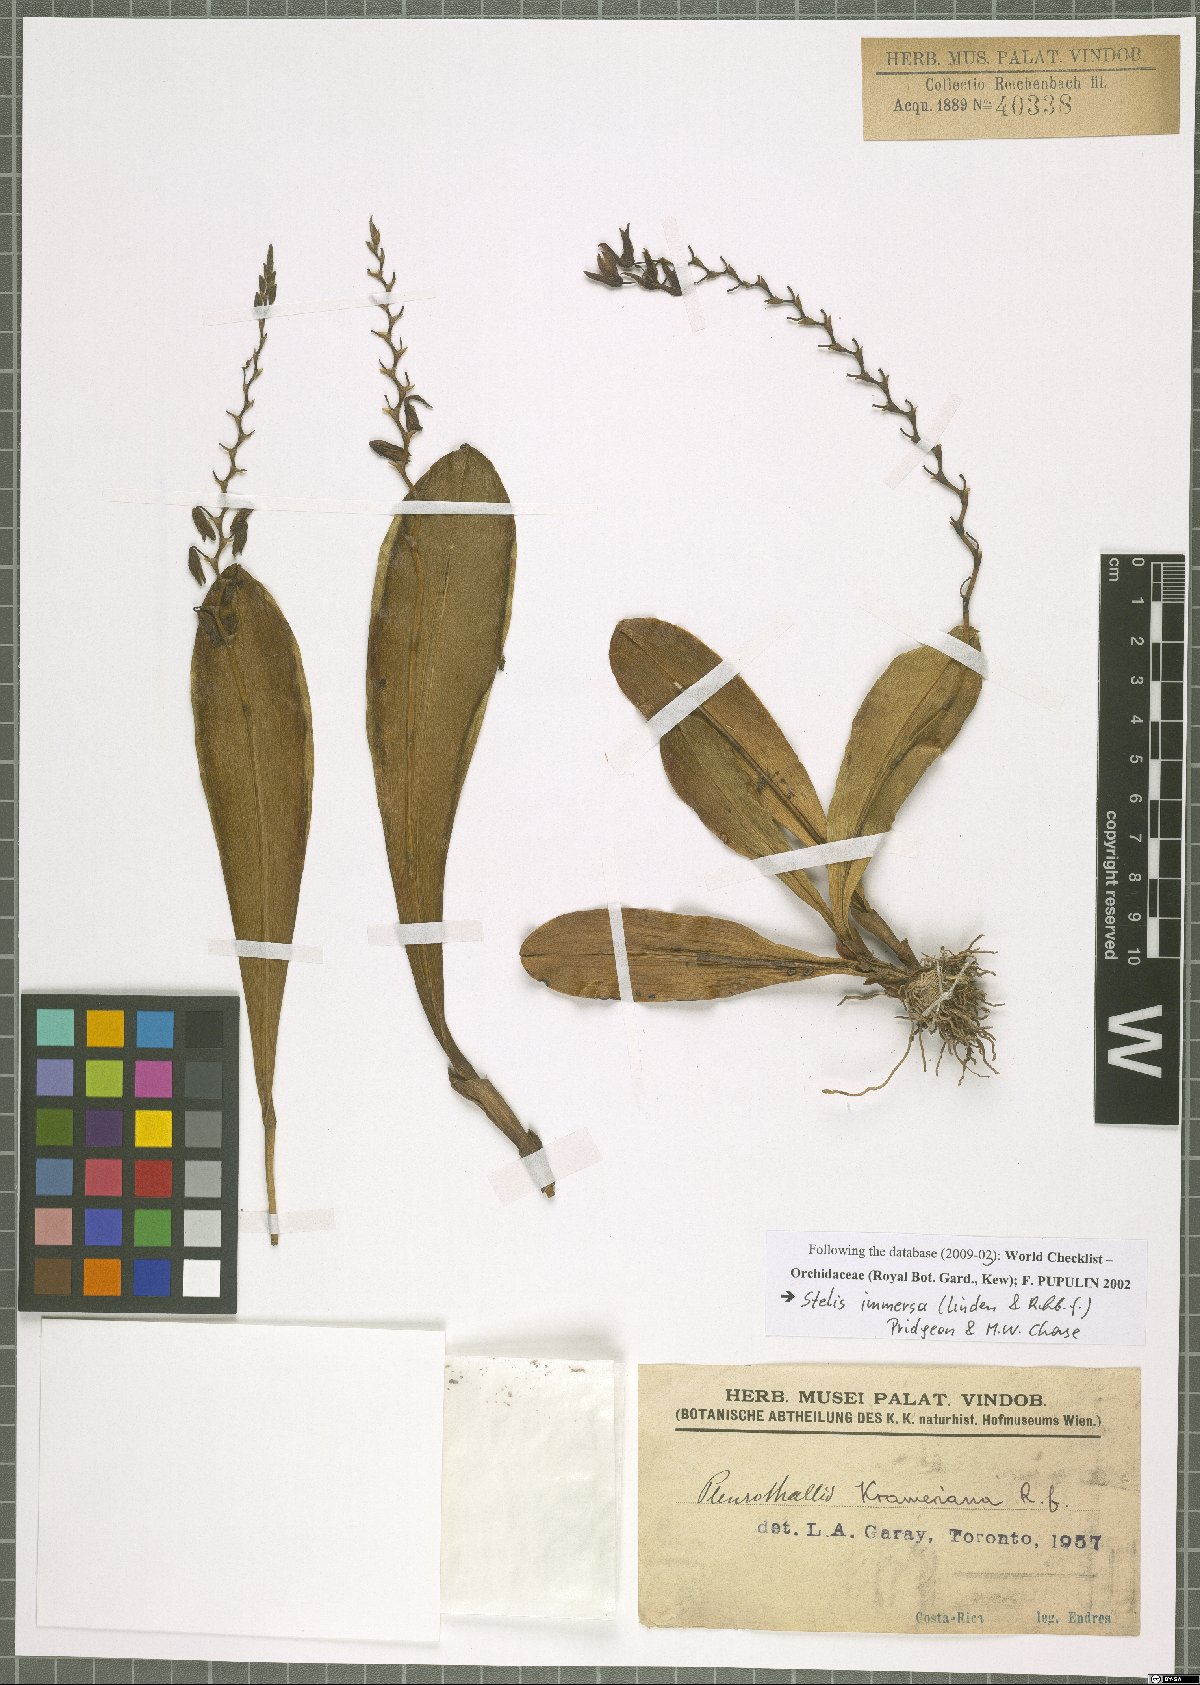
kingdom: Plantae
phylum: Tracheophyta
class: Liliopsida
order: Asparagales
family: Orchidaceae
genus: Stelis
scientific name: Stelis immersa
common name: Sunken pleurothallis
